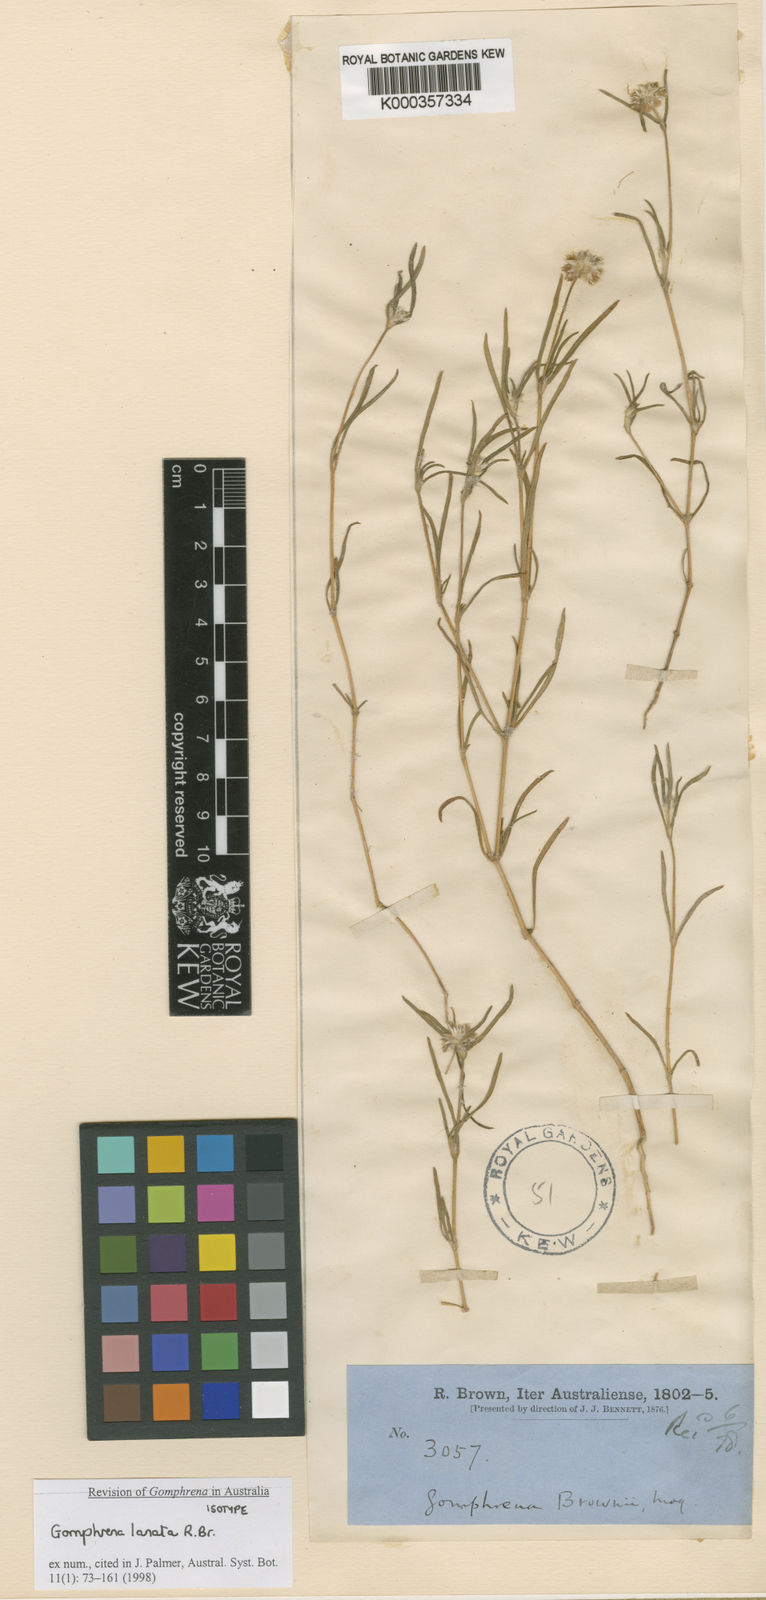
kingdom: Plantae
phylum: Tracheophyta
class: Magnoliopsida
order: Caryophyllales
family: Amaranthaceae
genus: Gomphrena
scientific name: Gomphrena lanata
